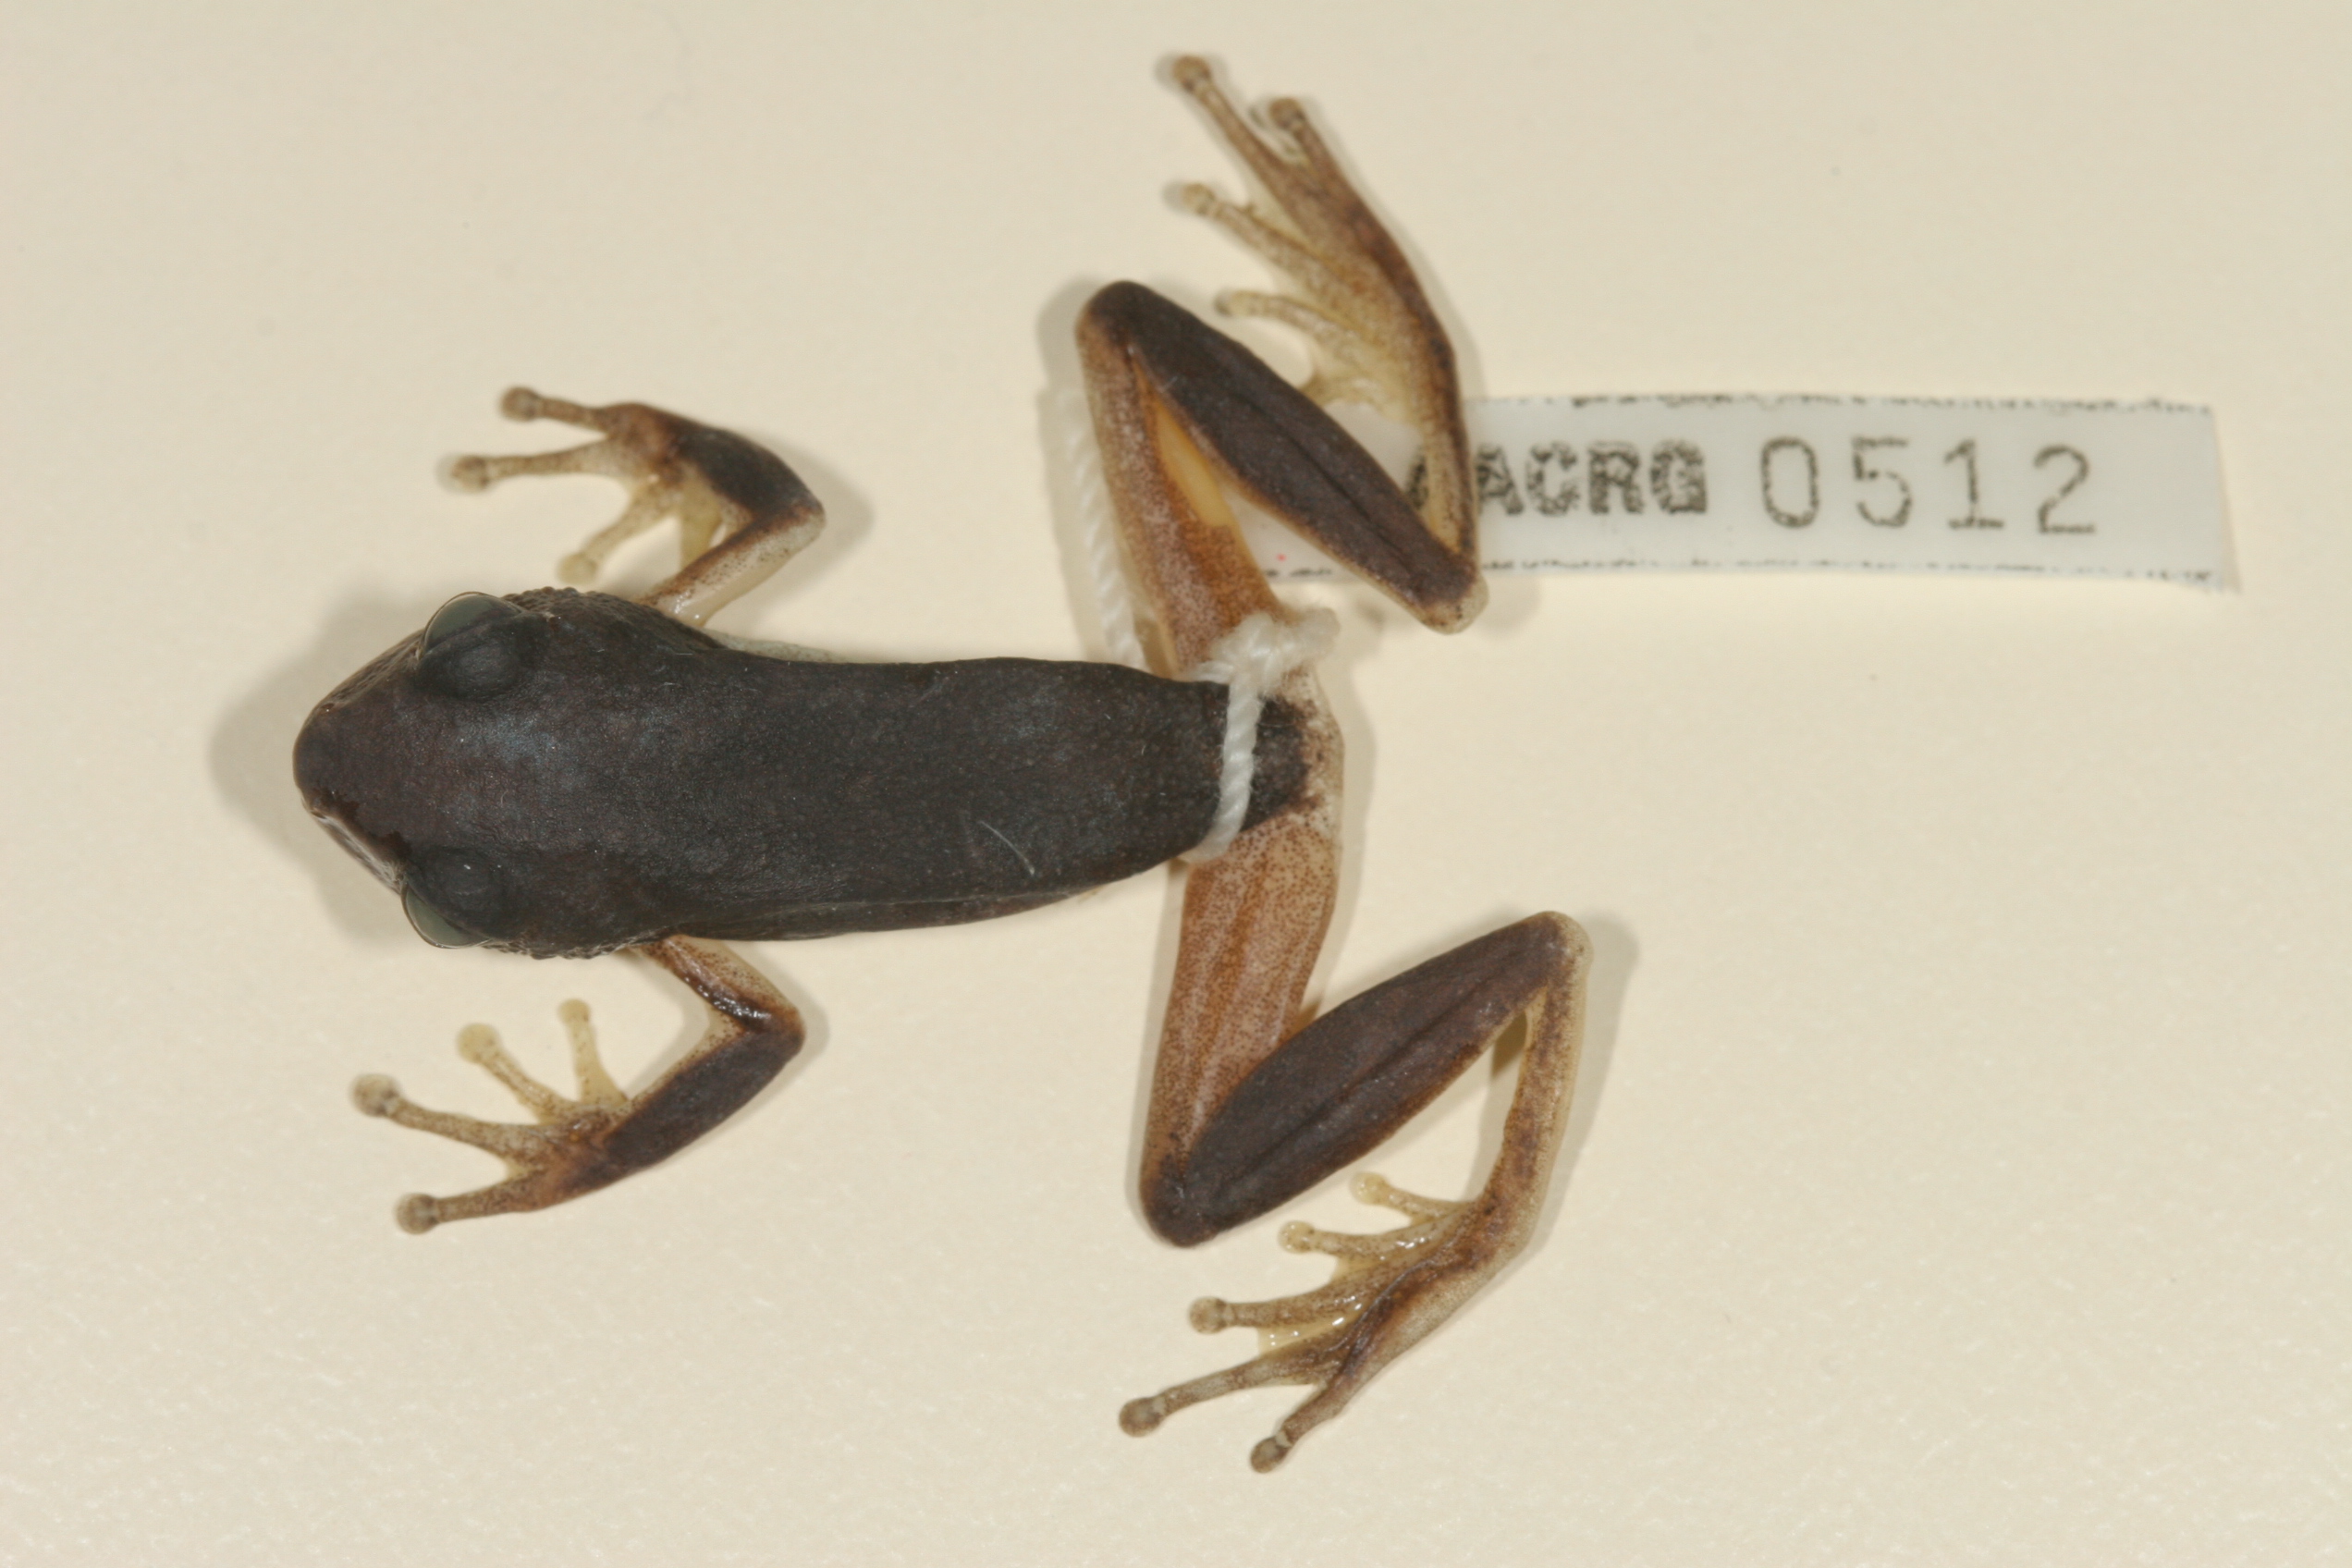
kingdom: Animalia
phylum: Chordata
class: Amphibia
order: Anura
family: Hyperoliidae
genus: Hyperolius
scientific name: Hyperolius tuberilinguis
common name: Tinker reed frog
